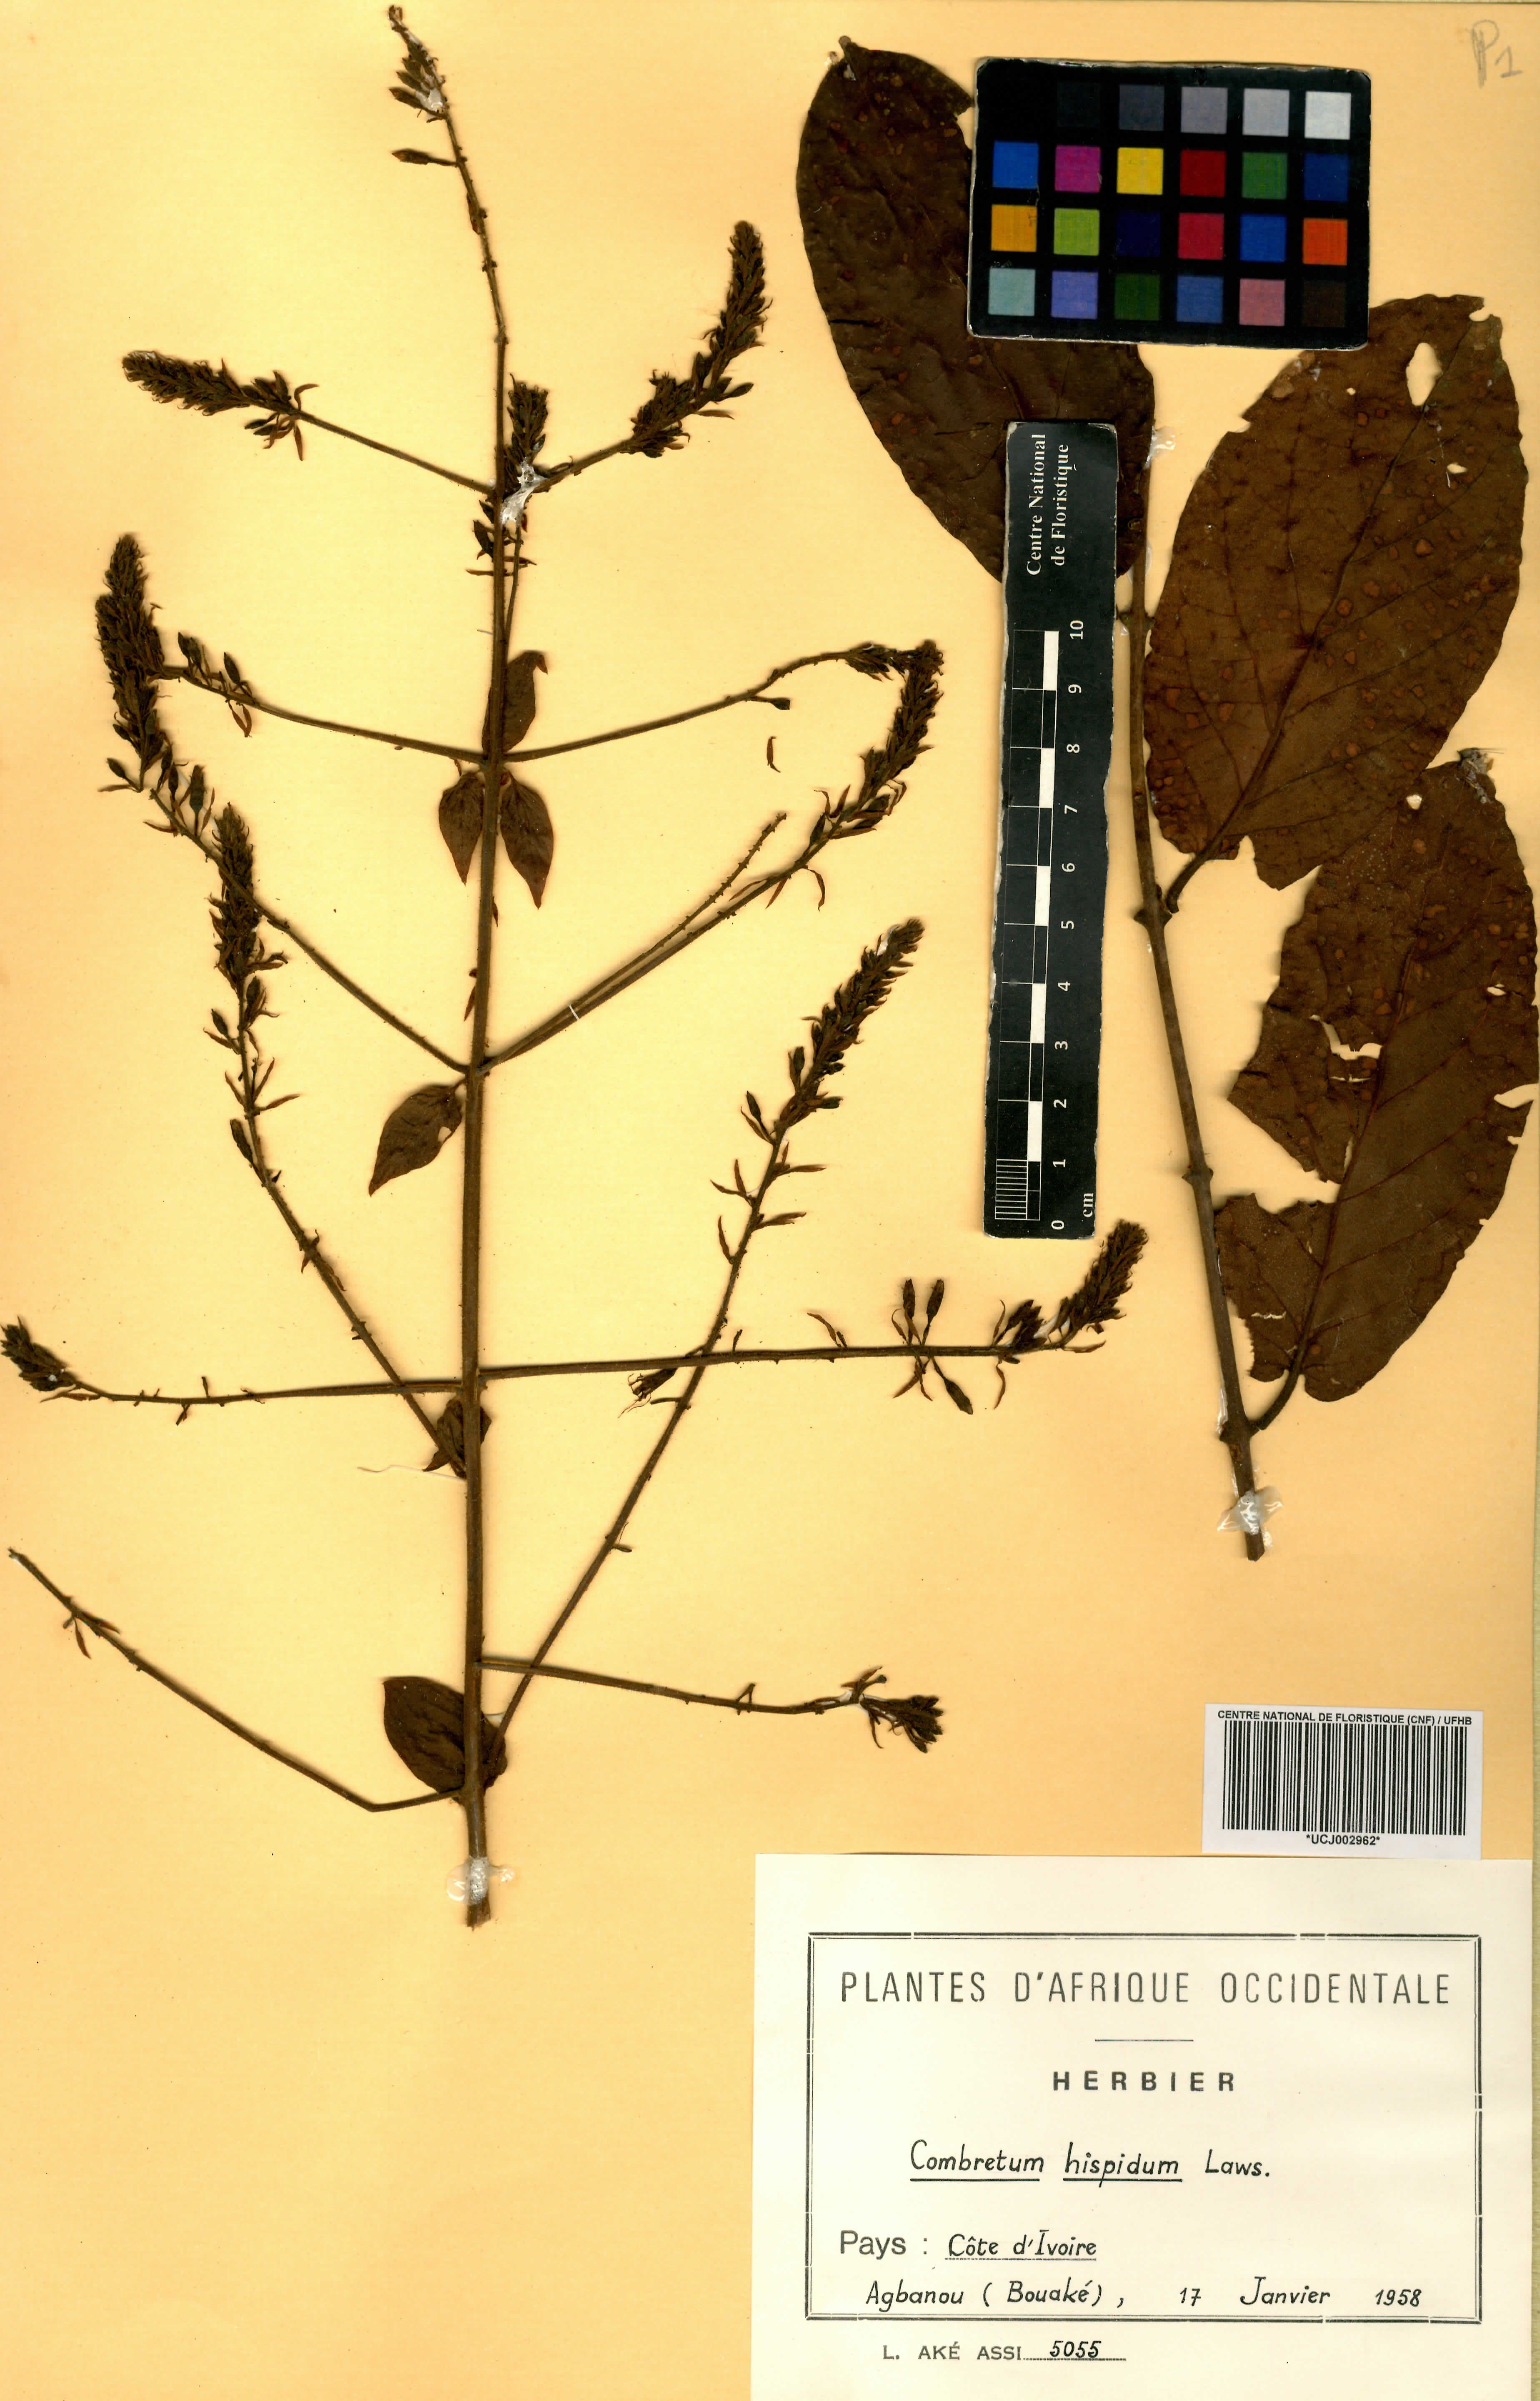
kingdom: Plantae
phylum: Tracheophyta
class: Magnoliopsida
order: Myrtales
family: Combretaceae
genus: Combretum
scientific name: Combretum comosum
